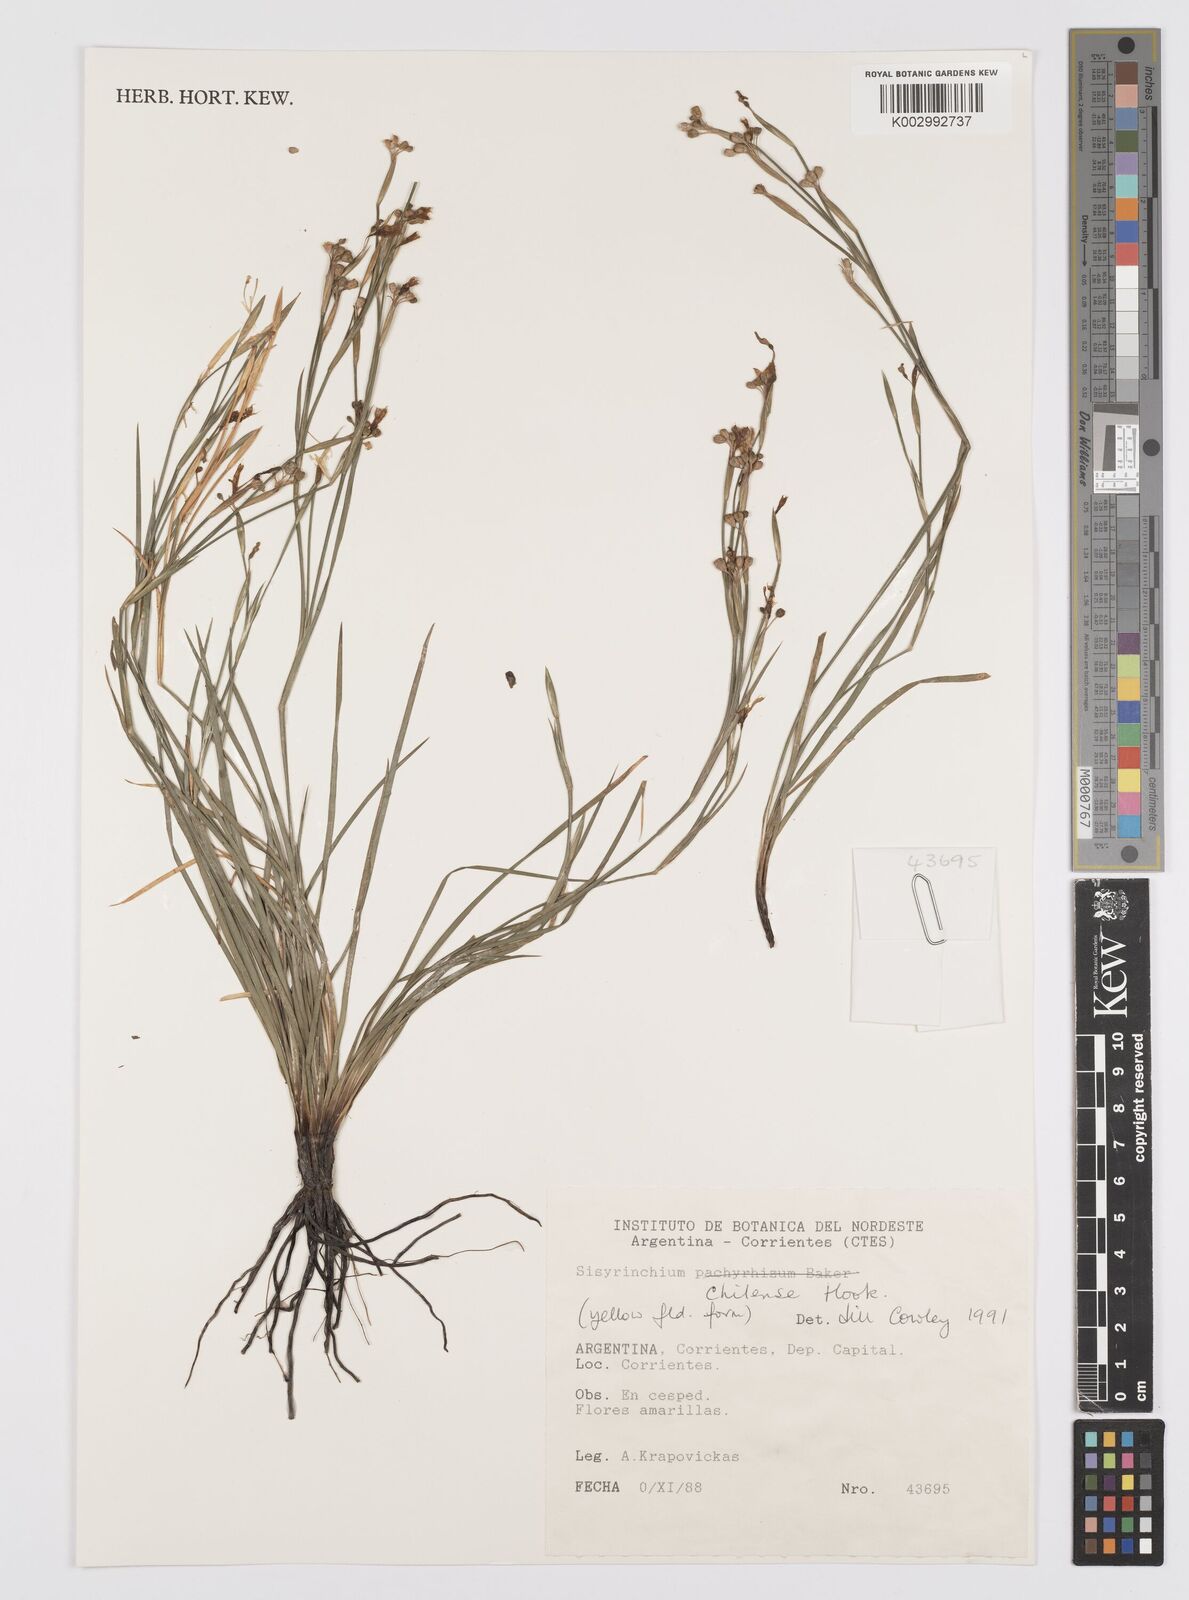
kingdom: Plantae
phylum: Tracheophyta
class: Liliopsida
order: Asparagales
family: Iridaceae
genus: Sisyrinchium
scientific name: Sisyrinchium chilense
